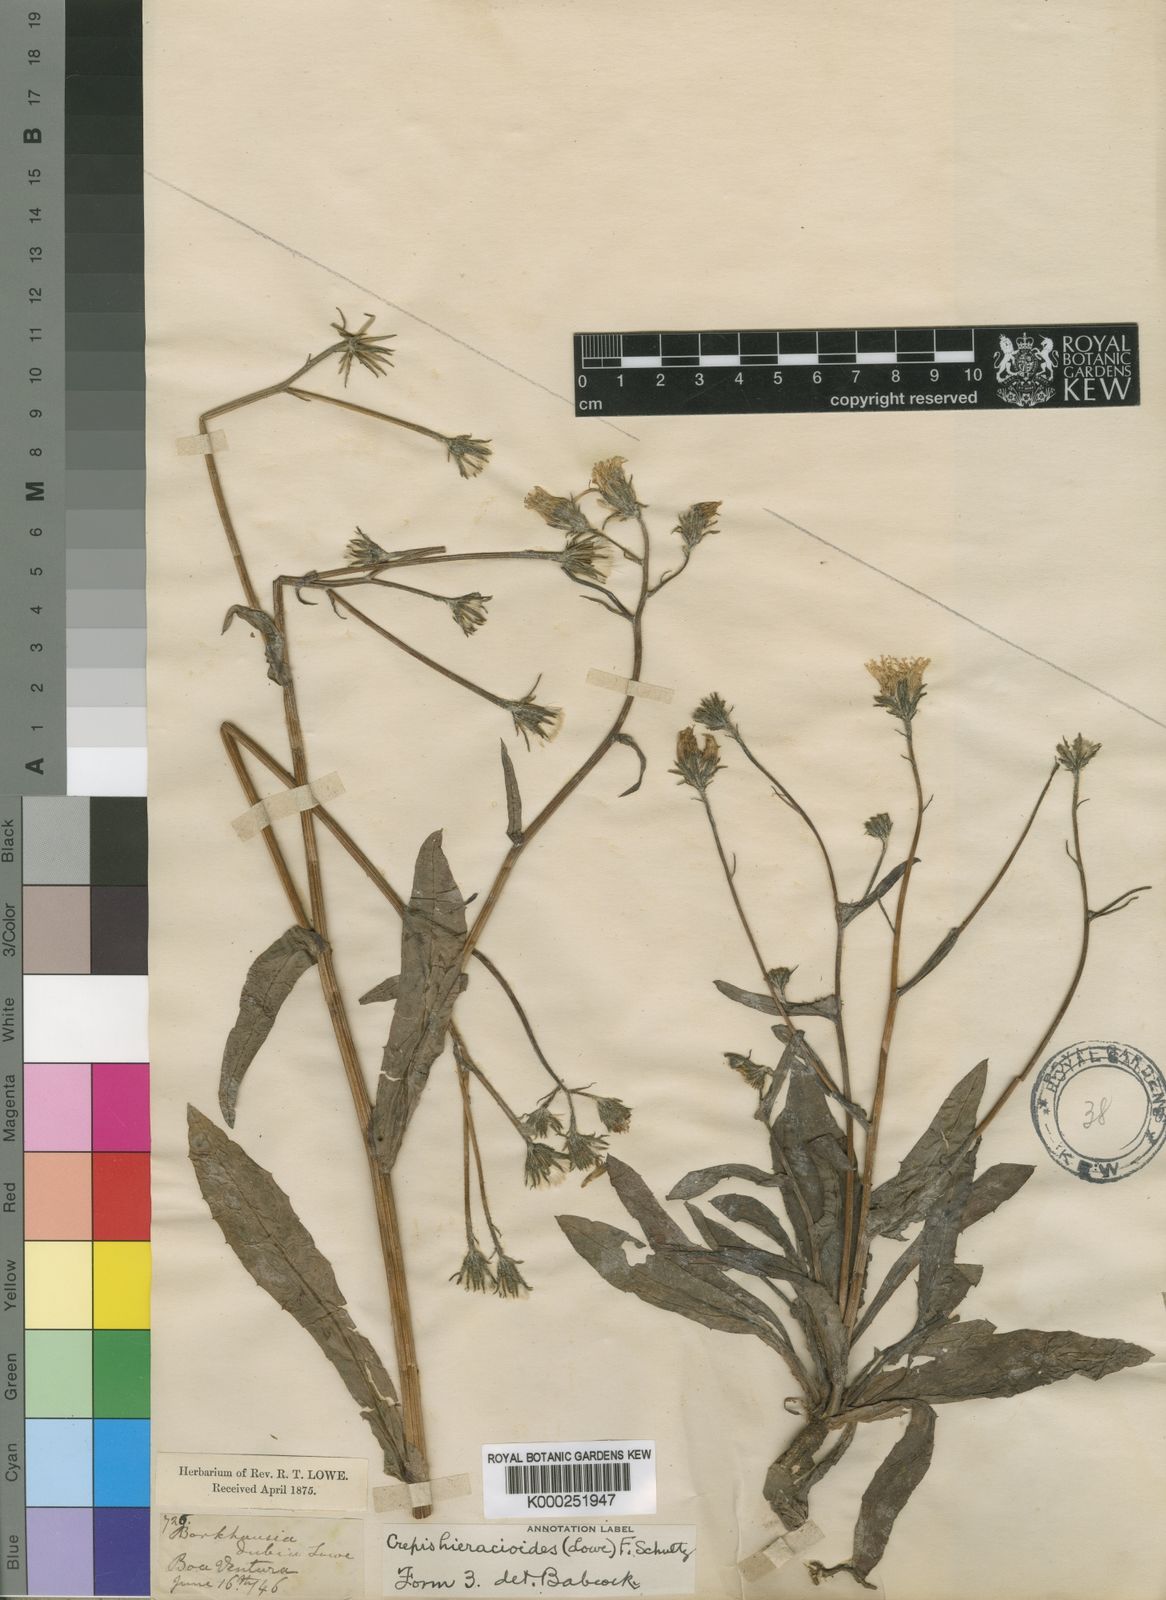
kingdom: Plantae
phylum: Tracheophyta
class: Magnoliopsida
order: Asterales
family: Asteraceae
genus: Crepis
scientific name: Crepis
